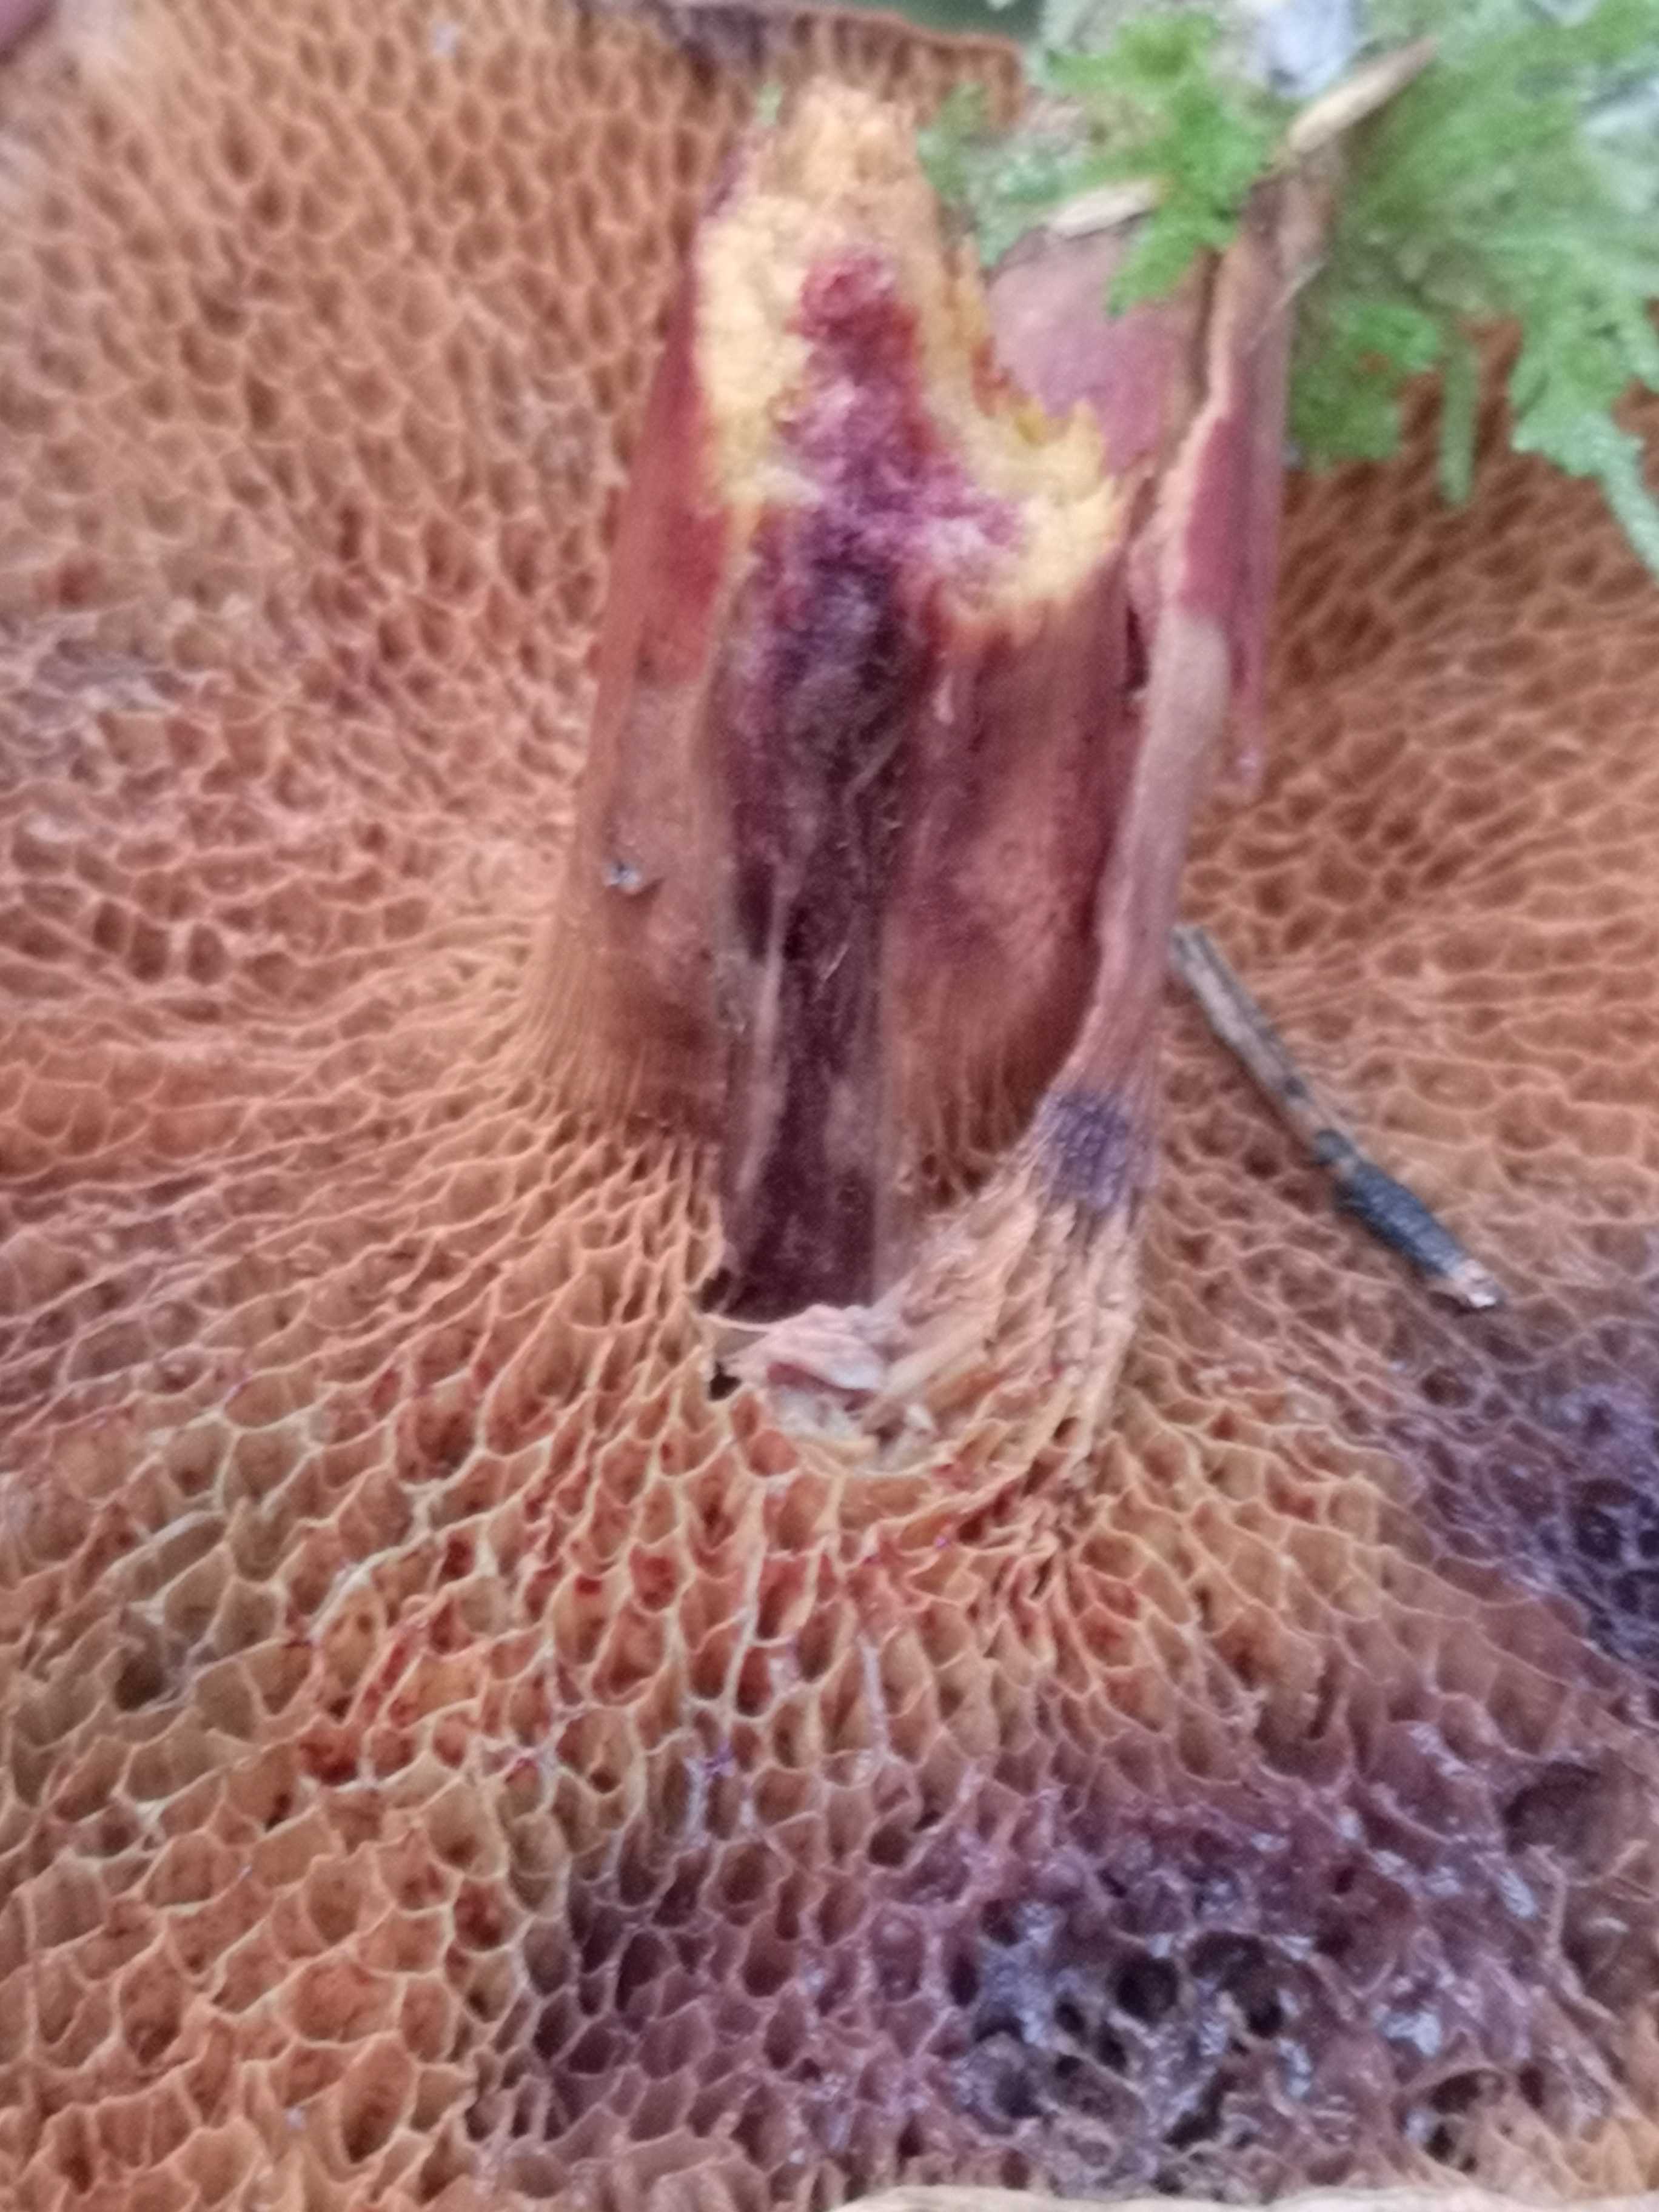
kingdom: Fungi
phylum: Basidiomycota
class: Agaricomycetes
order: Boletales
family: Suillaceae
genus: Suillus
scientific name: Suillus bovinus
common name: grovporet slimrørhat
